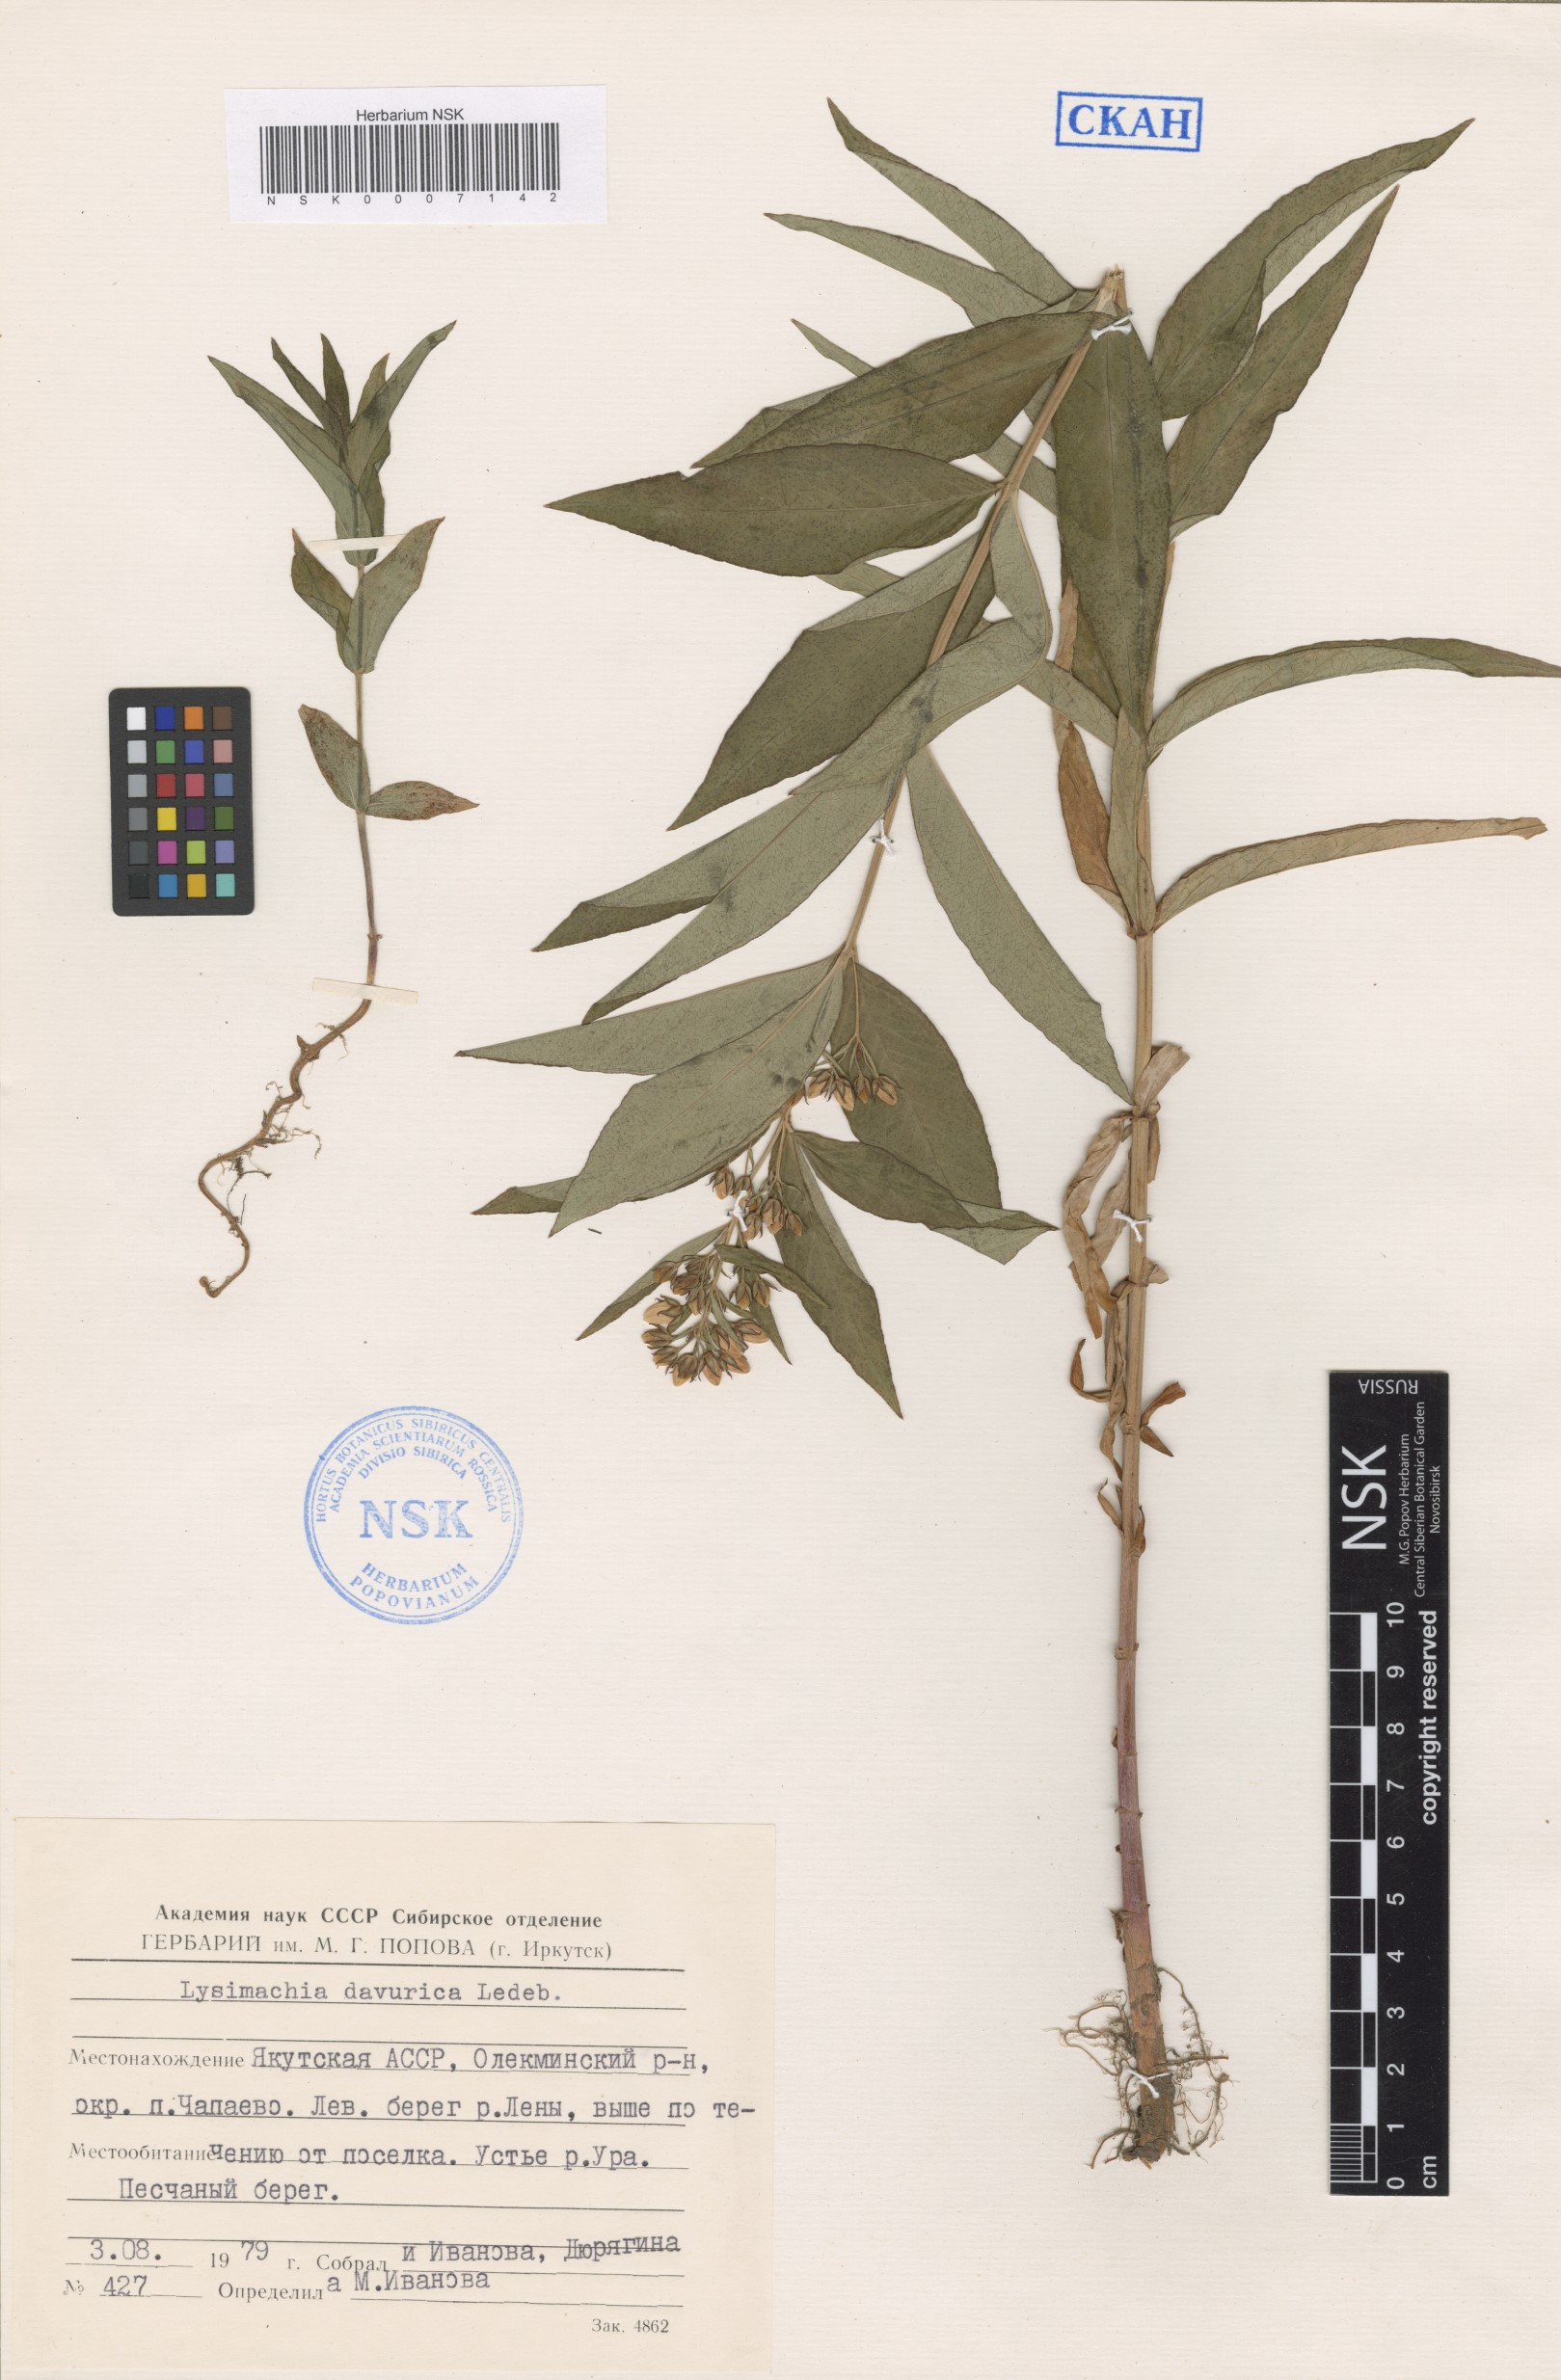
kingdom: Plantae
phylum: Tracheophyta
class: Magnoliopsida
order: Ericales
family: Primulaceae
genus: Lysimachia
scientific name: Lysimachia davurica
